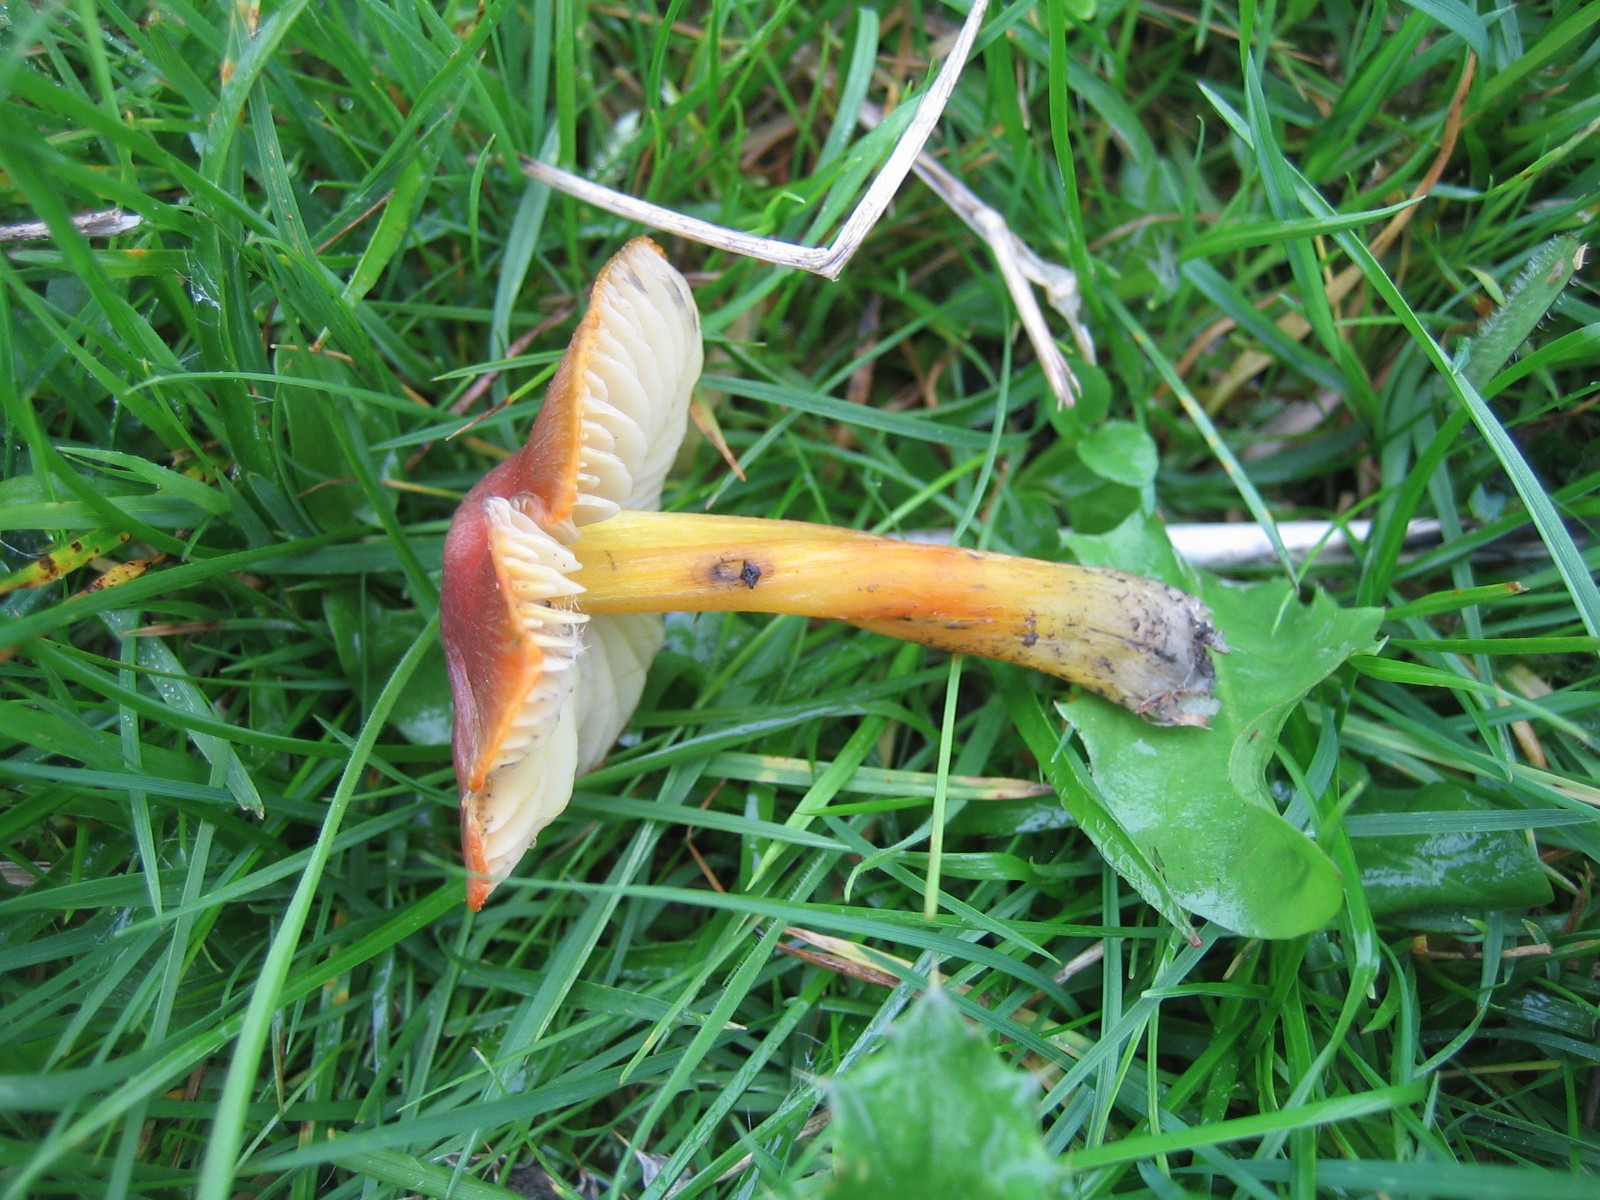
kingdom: Fungi
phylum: Basidiomycota
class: Agaricomycetes
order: Agaricales
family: Hygrophoraceae
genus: Hygrocybe
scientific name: Hygrocybe conica
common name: kegle-vokshat
